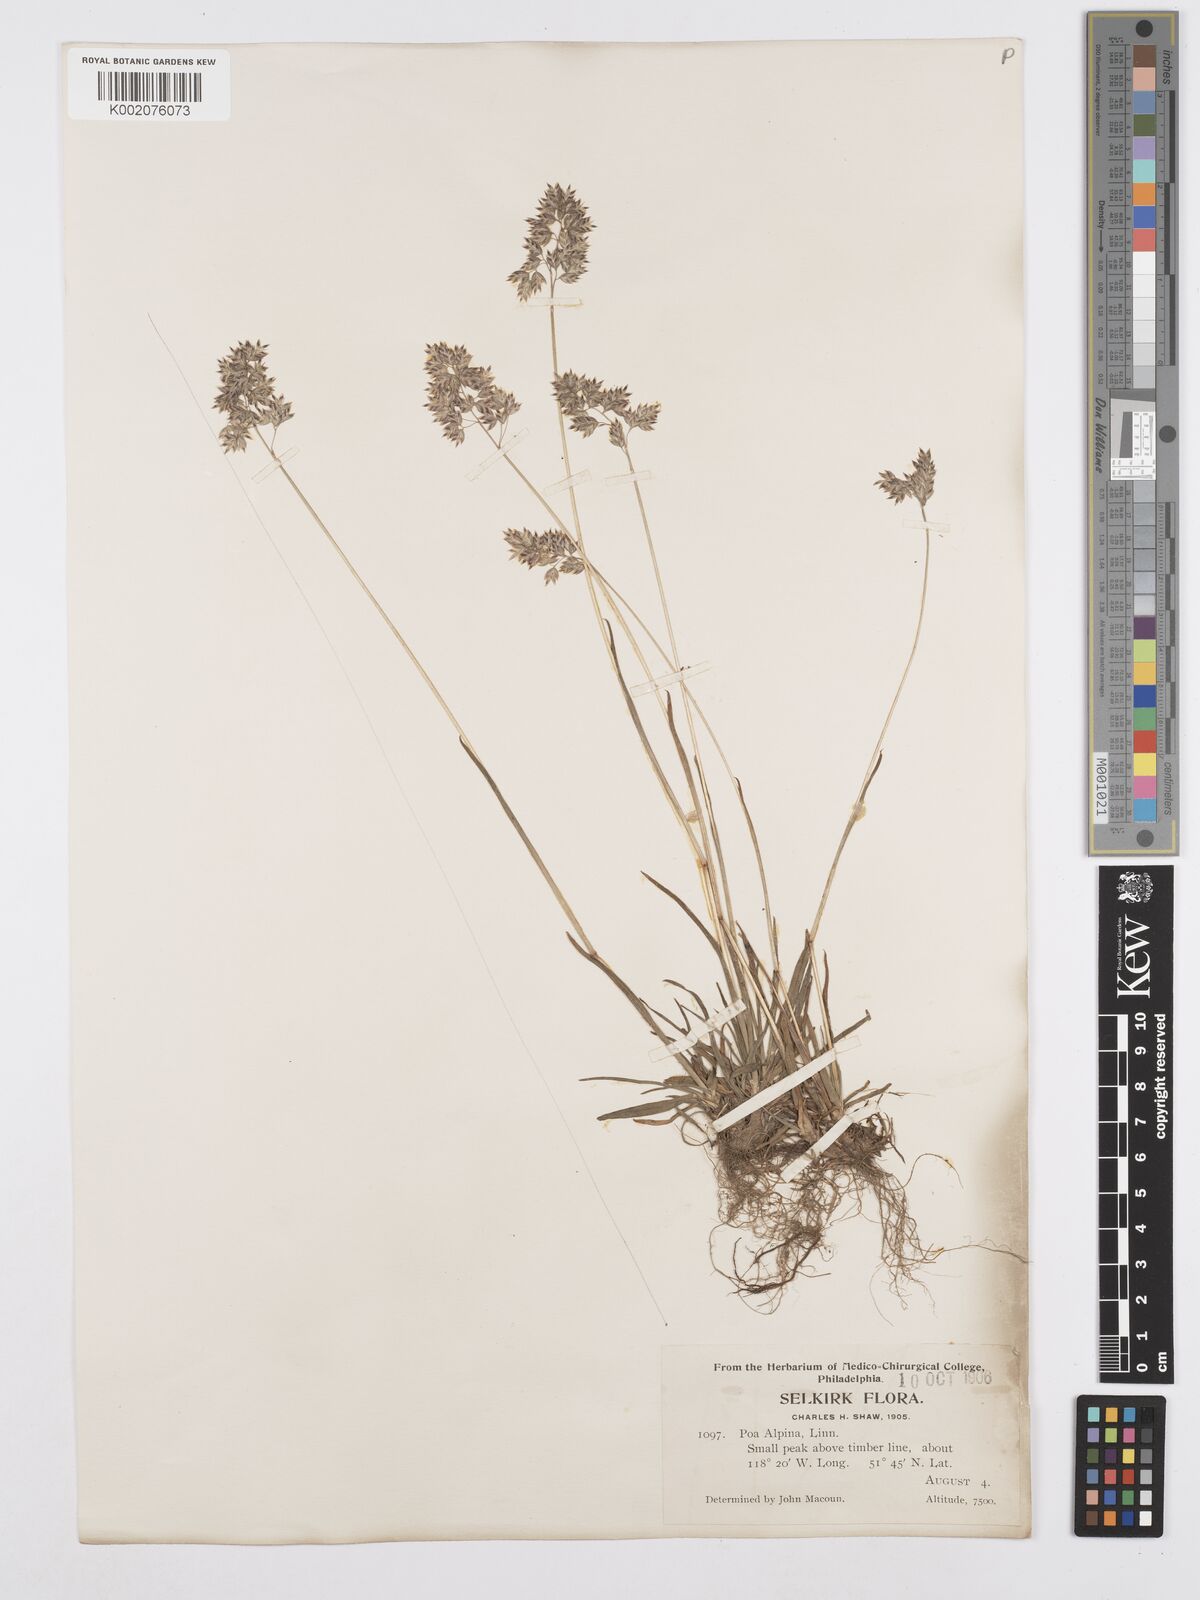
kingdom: Plantae
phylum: Tracheophyta
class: Liliopsida
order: Poales
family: Poaceae
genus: Poa
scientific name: Poa alpina
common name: Alpine bluegrass
